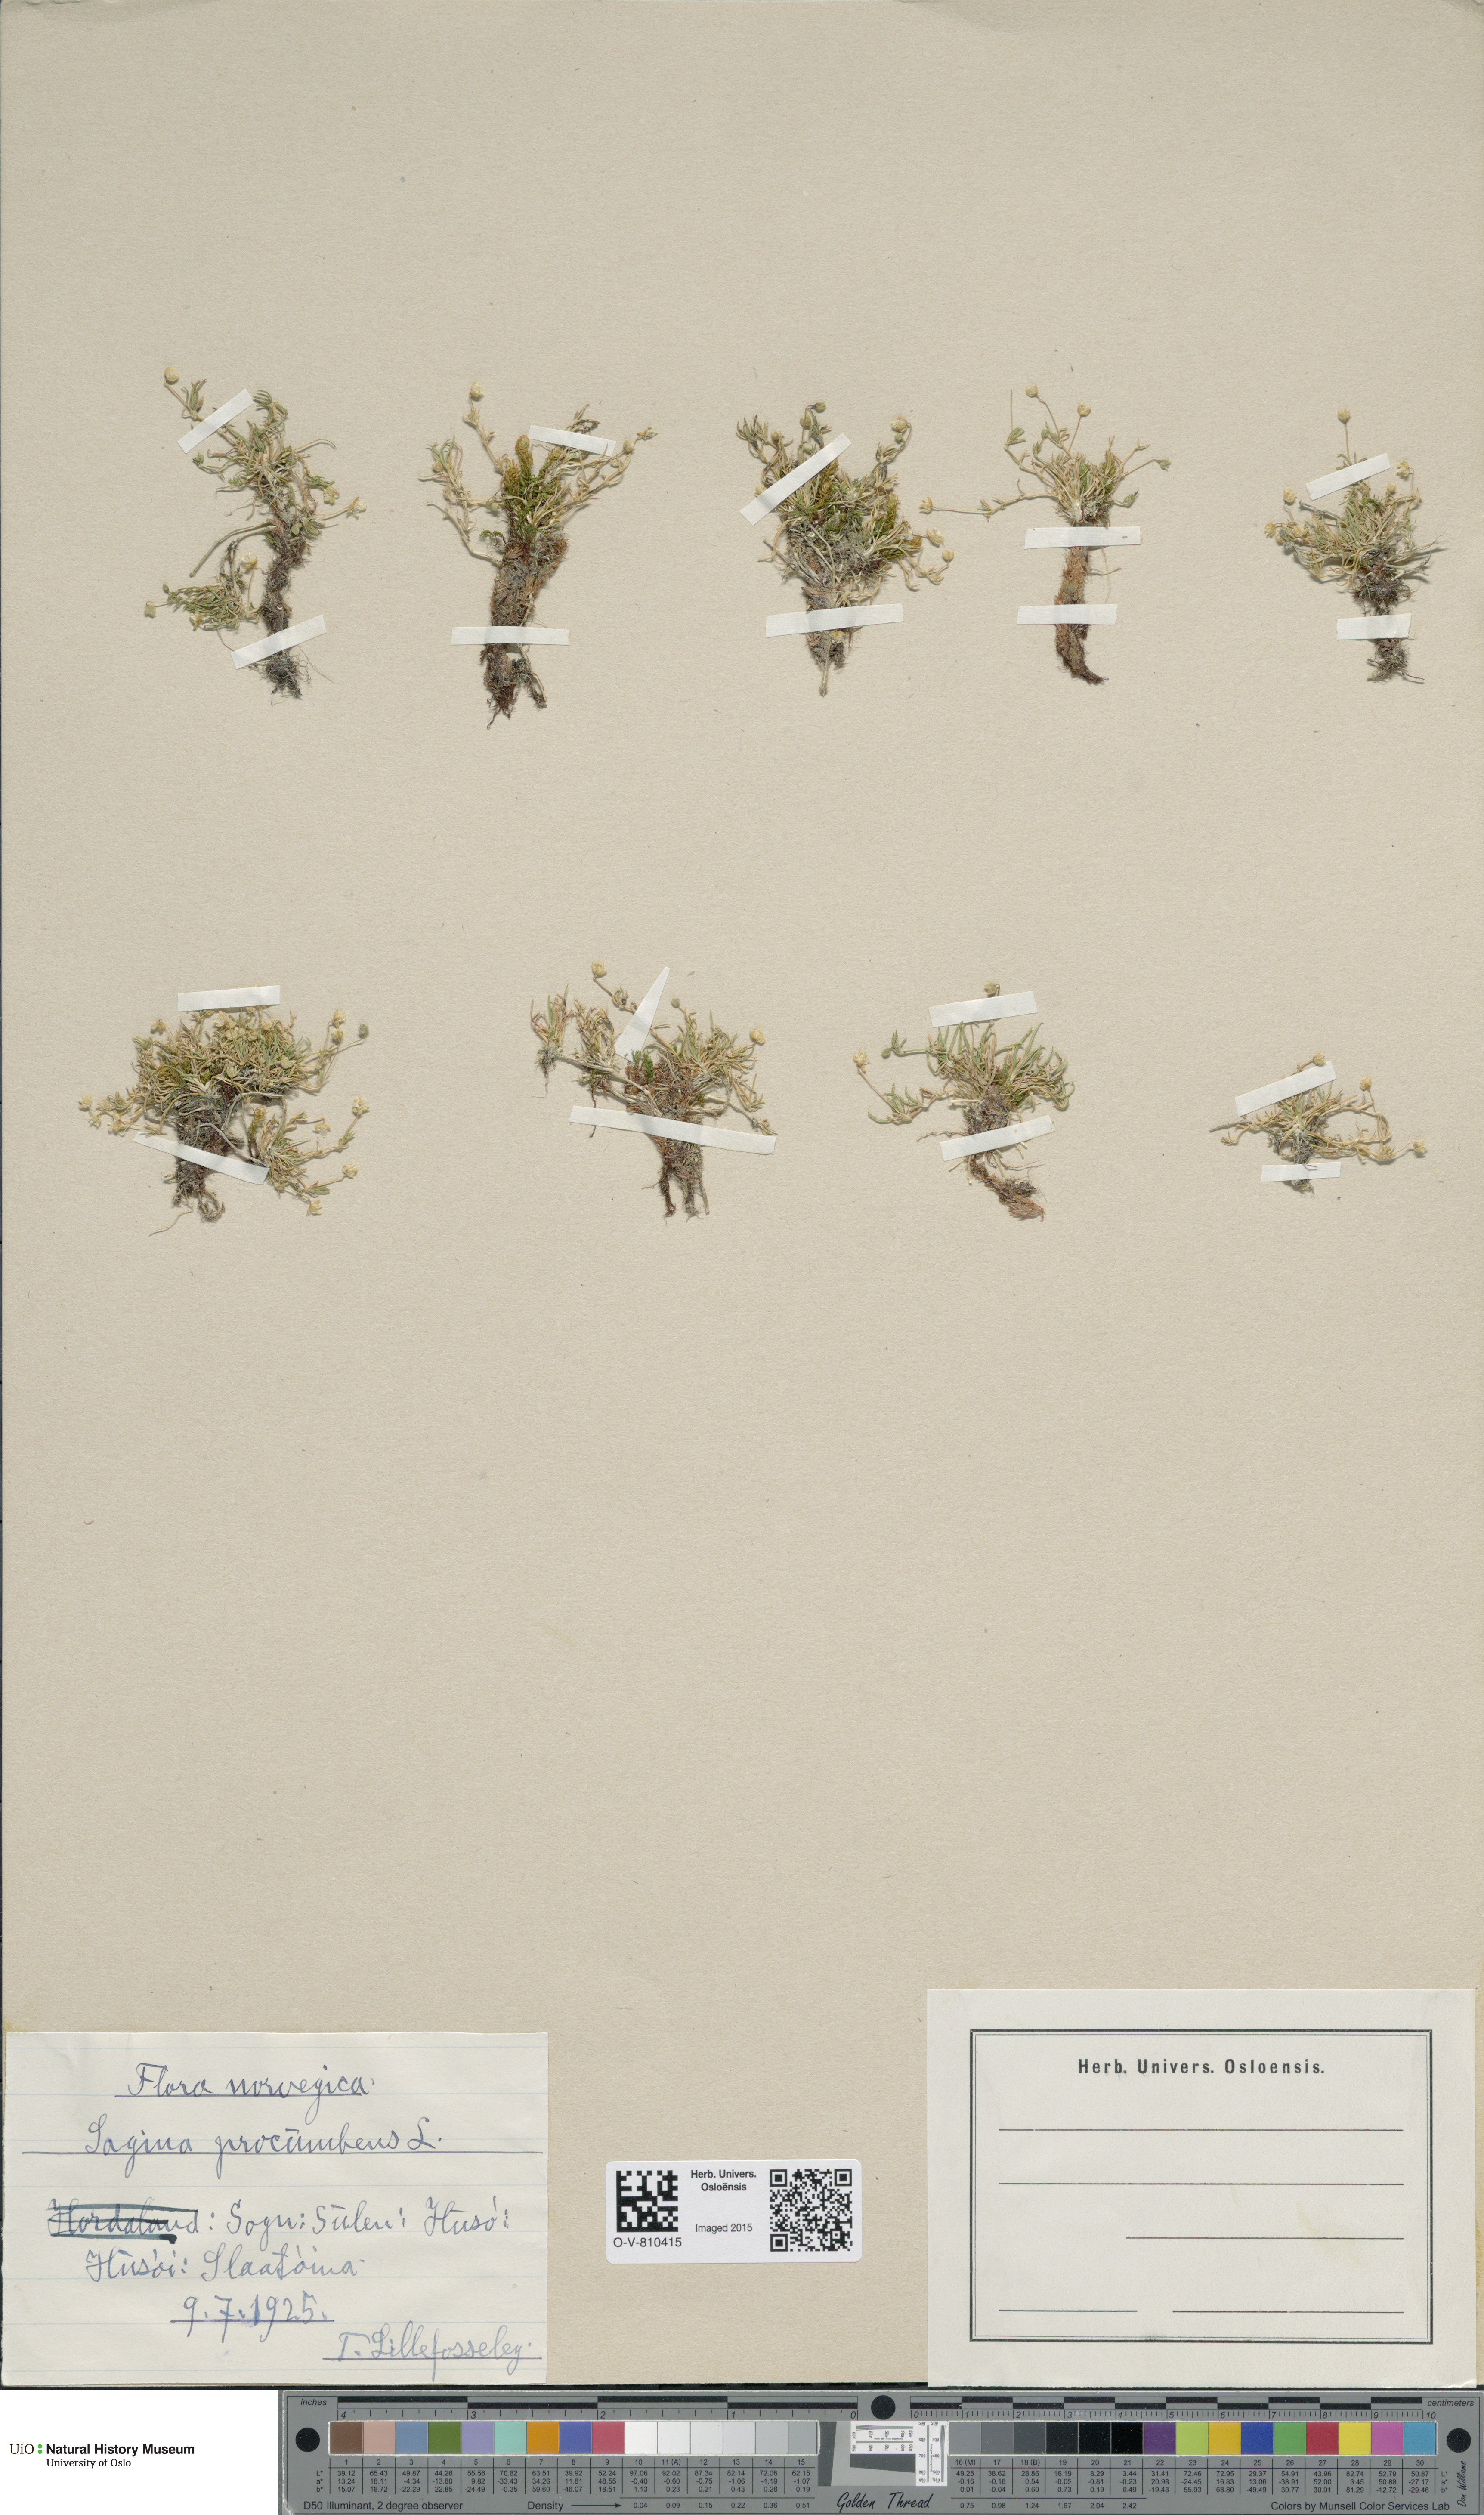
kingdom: Plantae
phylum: Tracheophyta
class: Magnoliopsida
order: Caryophyllales
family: Caryophyllaceae
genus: Sagina
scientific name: Sagina procumbens
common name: Procumbent pearlwort
